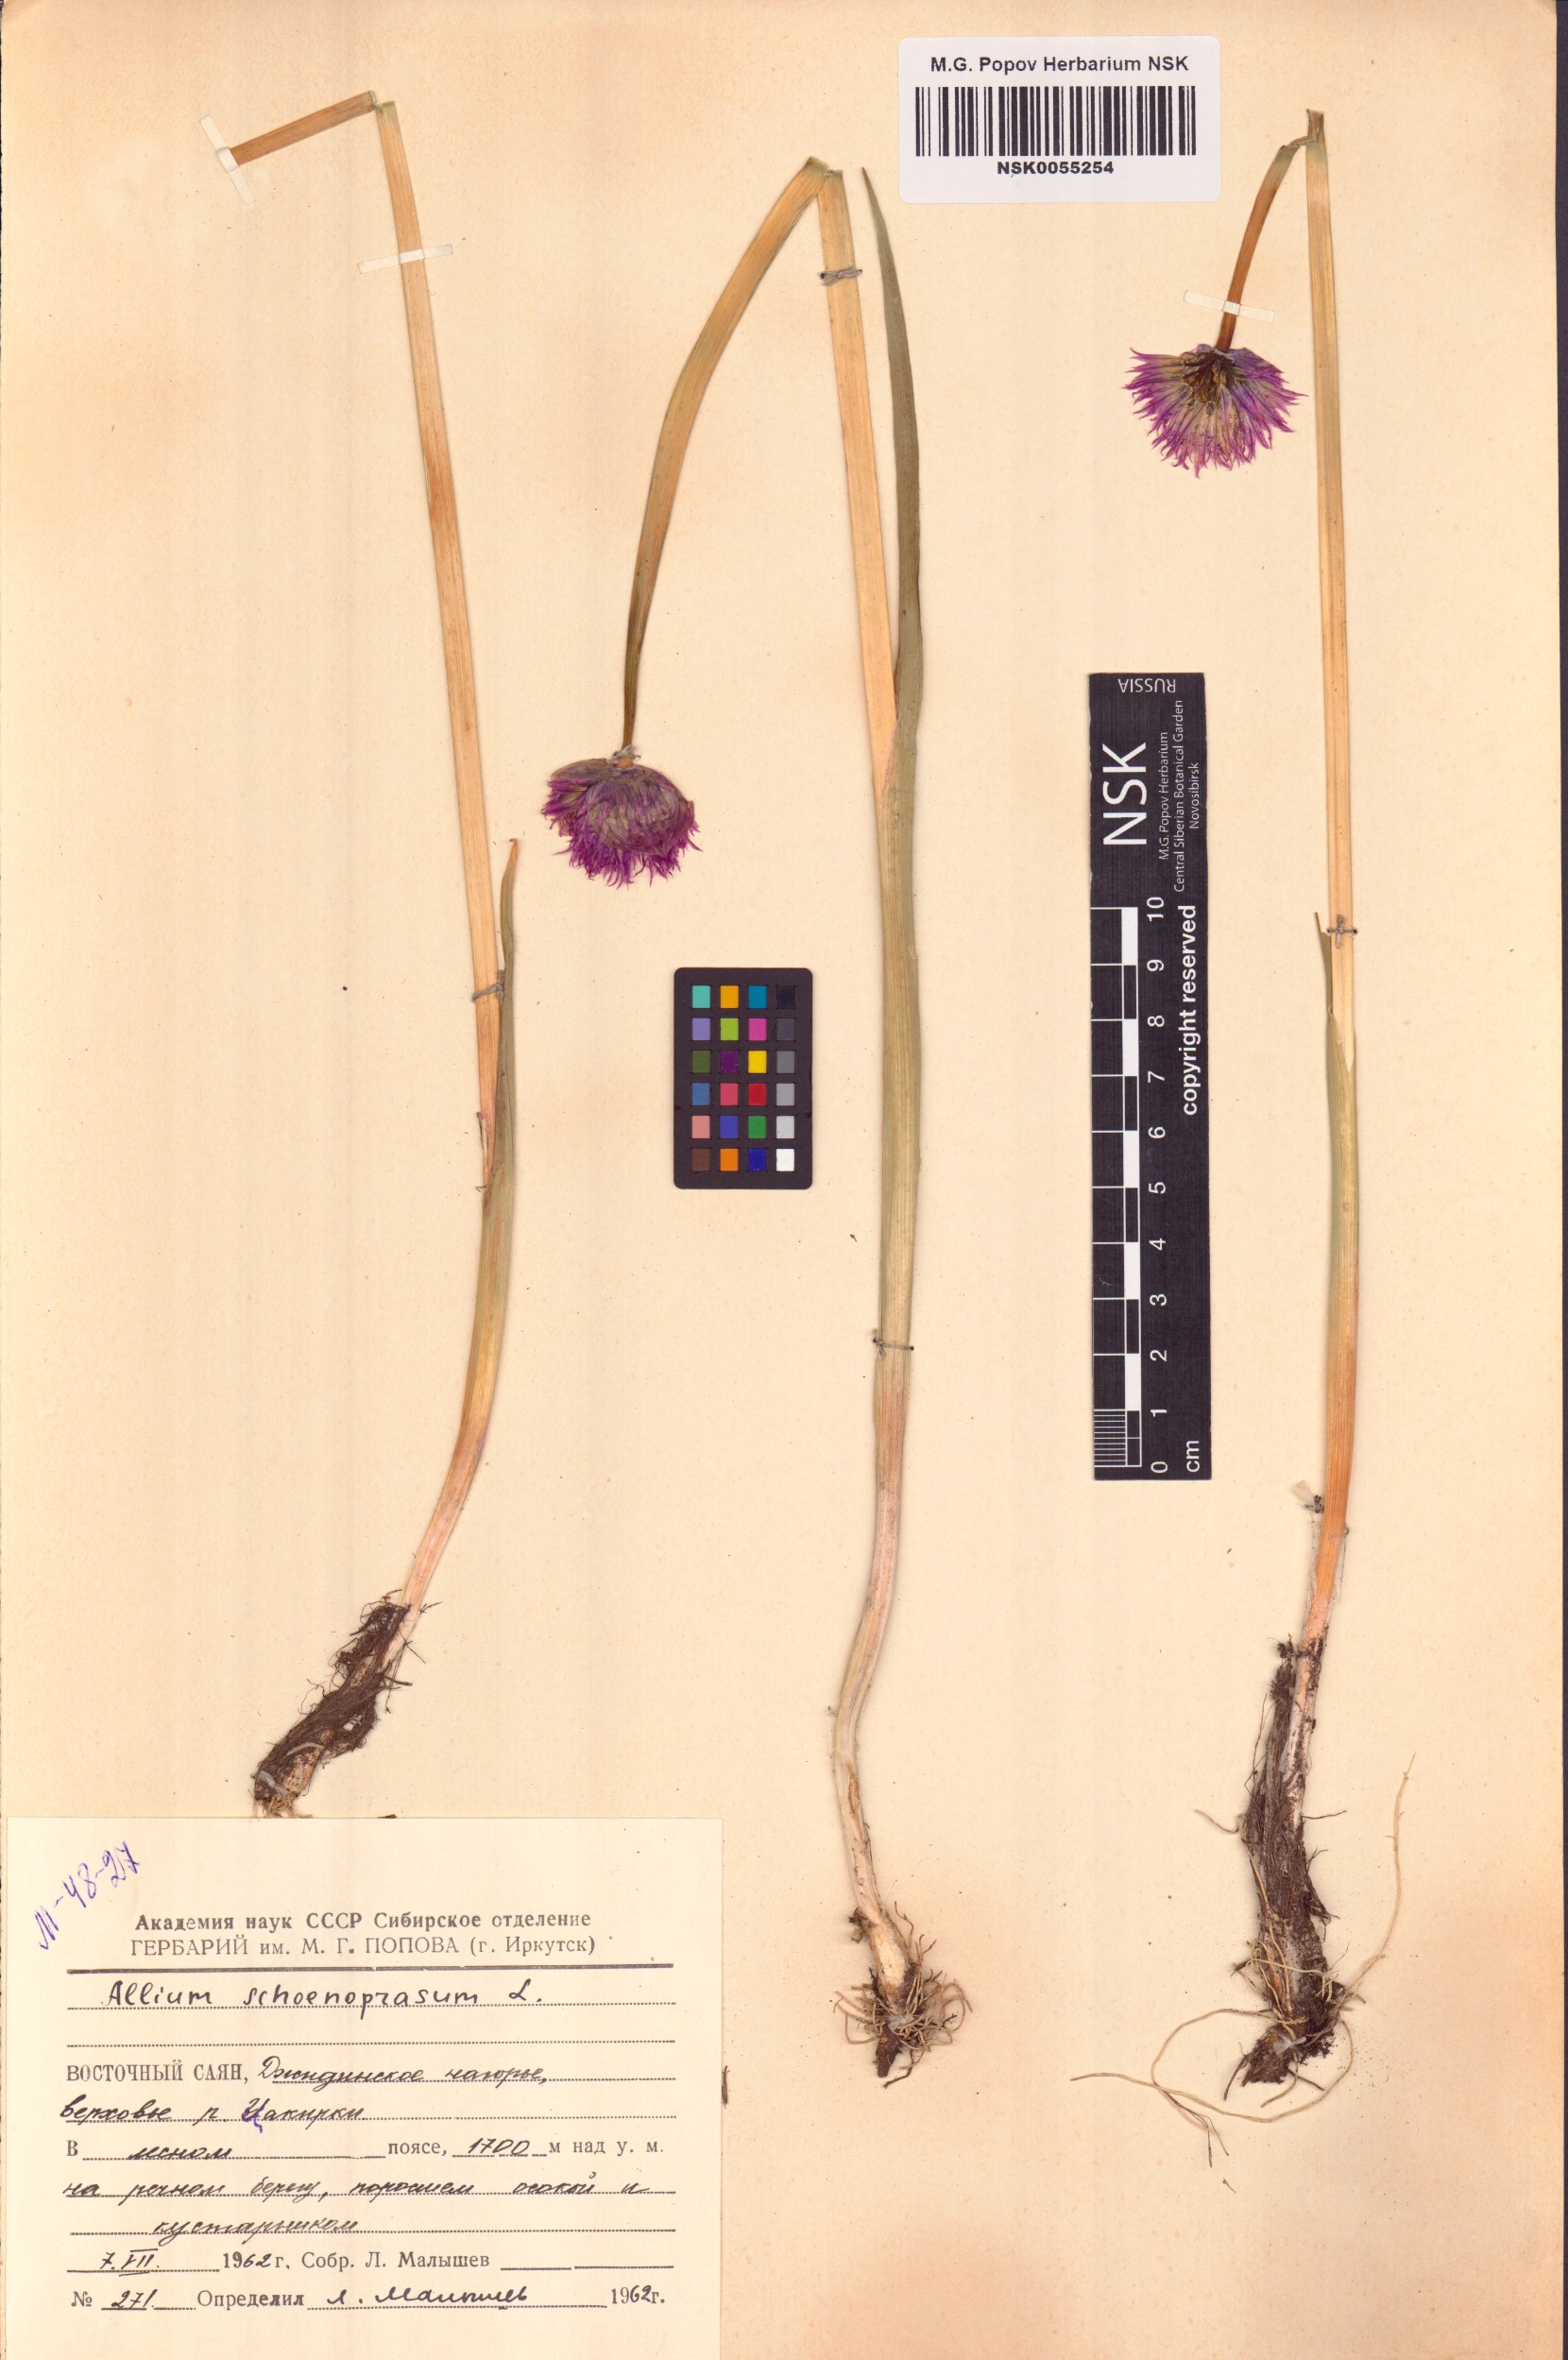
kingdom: Plantae
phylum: Tracheophyta
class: Liliopsida
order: Asparagales
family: Amaryllidaceae
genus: Allium
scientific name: Allium schoenoprasum
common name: Chives
